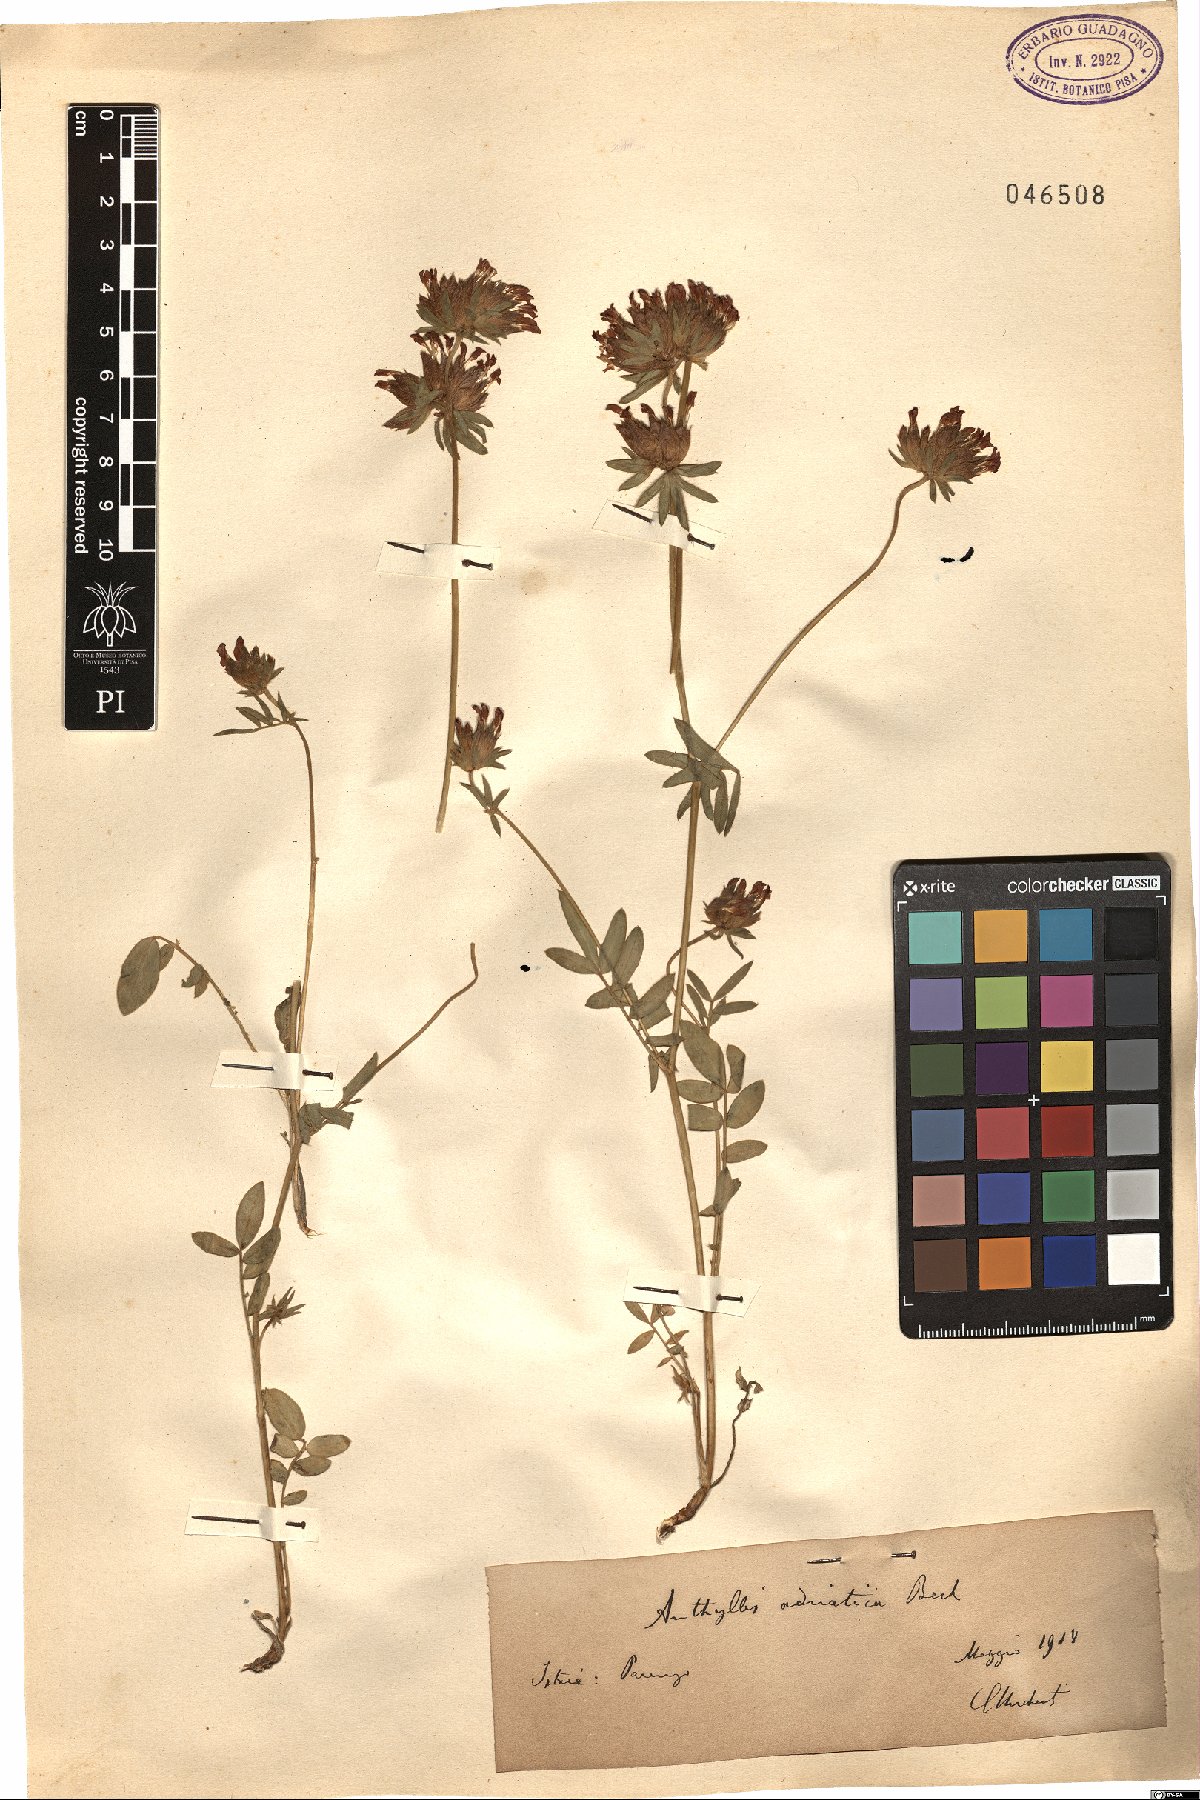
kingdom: Plantae
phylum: Tracheophyta
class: Magnoliopsida
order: Fabales
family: Fabaceae
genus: Anthyllis
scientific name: Anthyllis vulneraria
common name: Kidney vetch
